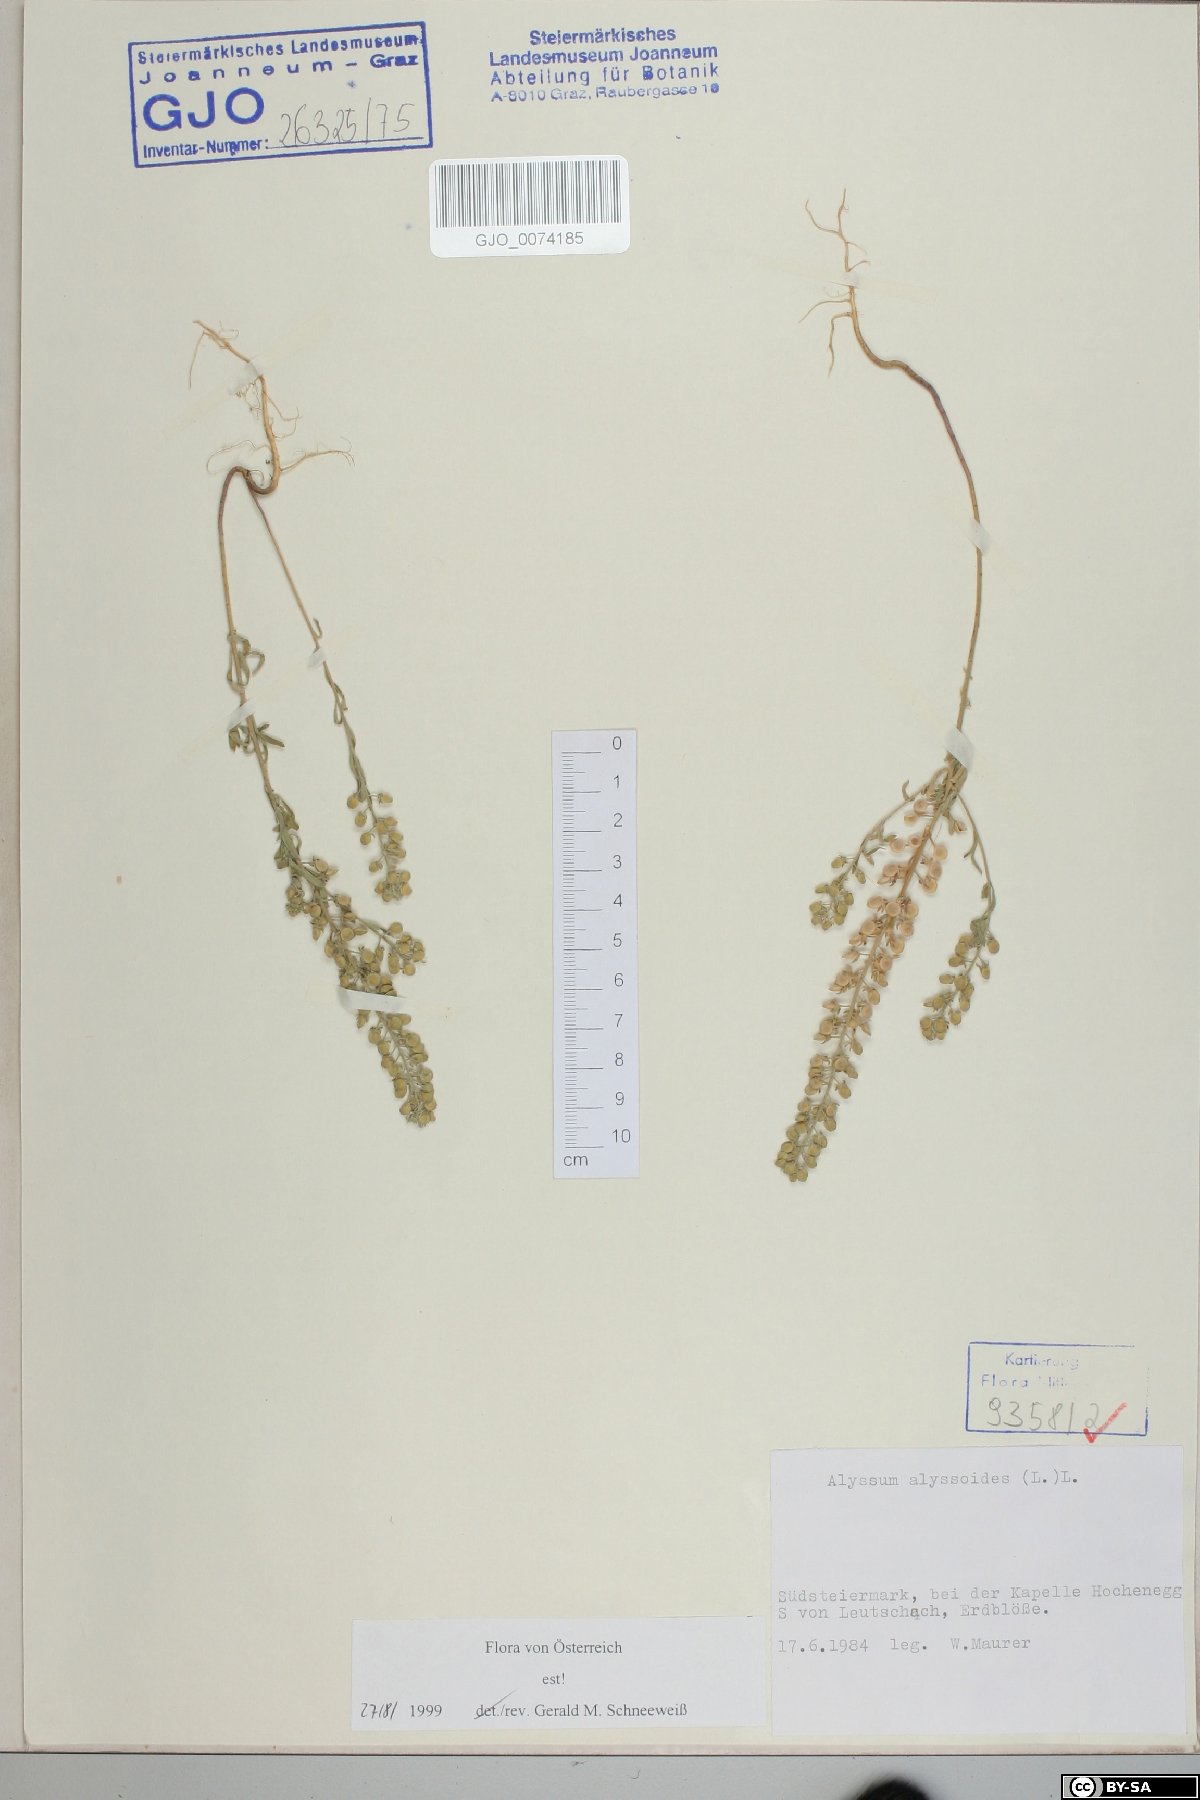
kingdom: Plantae
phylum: Tracheophyta
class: Magnoliopsida
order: Brassicales
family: Brassicaceae
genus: Alyssum
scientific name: Alyssum alyssoides
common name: Small alison
